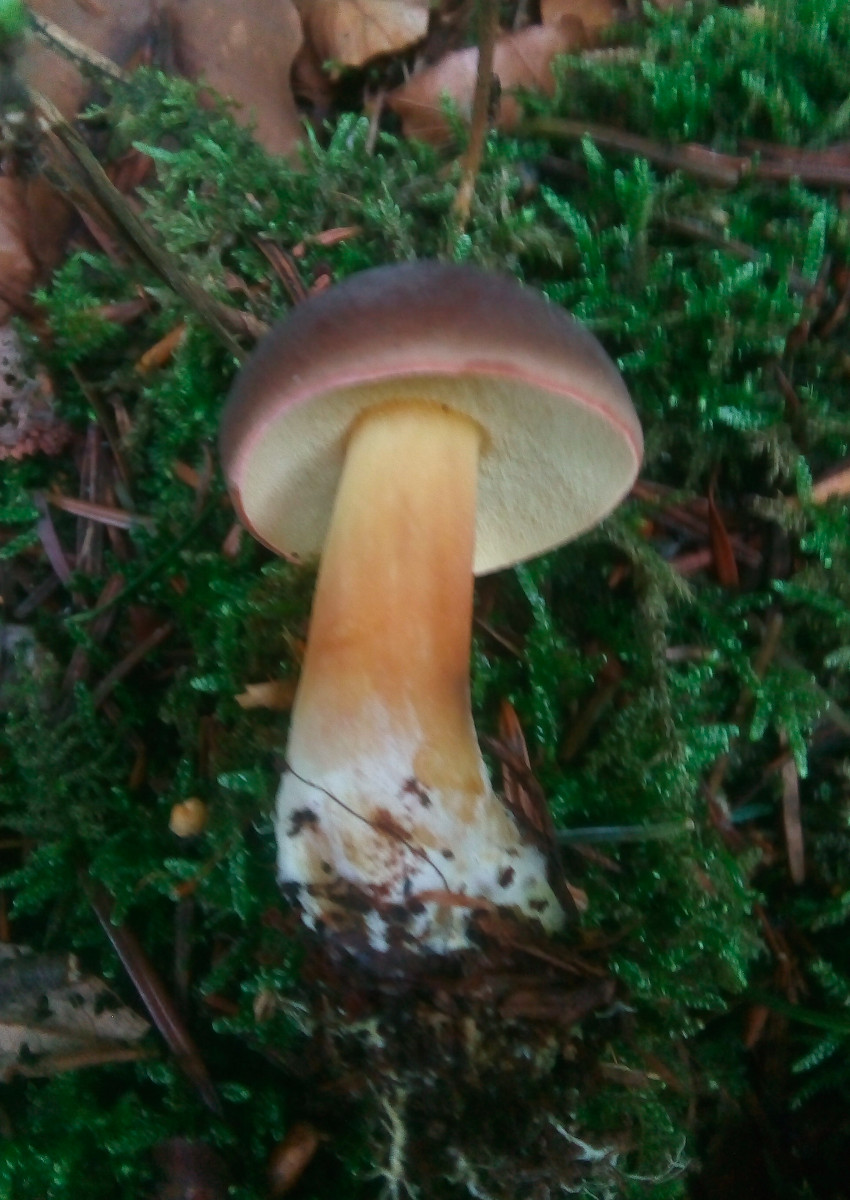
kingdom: Fungi
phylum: Basidiomycota
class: Agaricomycetes
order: Boletales
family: Boletaceae
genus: Xerocomellus
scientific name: Xerocomellus pruinatus
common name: dugget rørhat
